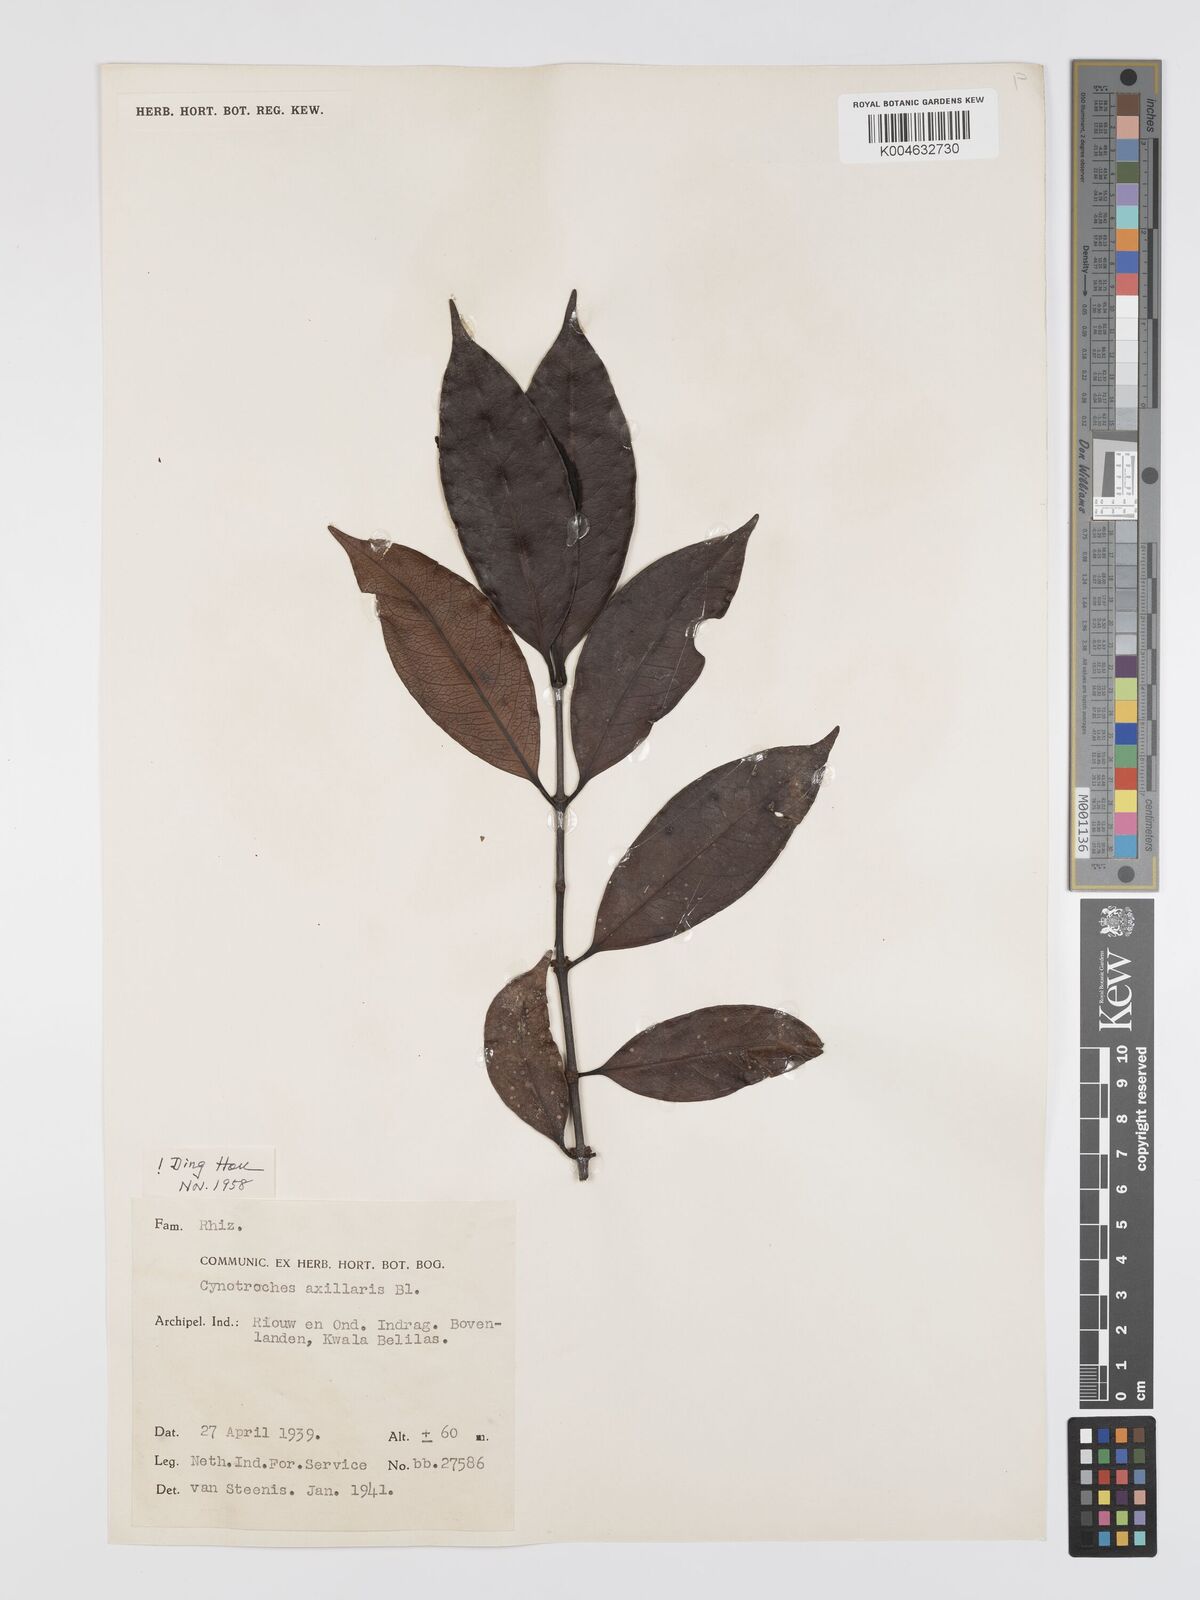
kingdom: Plantae
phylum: Tracheophyta
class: Magnoliopsida
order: Malpighiales
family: Rhizophoraceae
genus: Gynotroches
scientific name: Gynotroches axillaris
